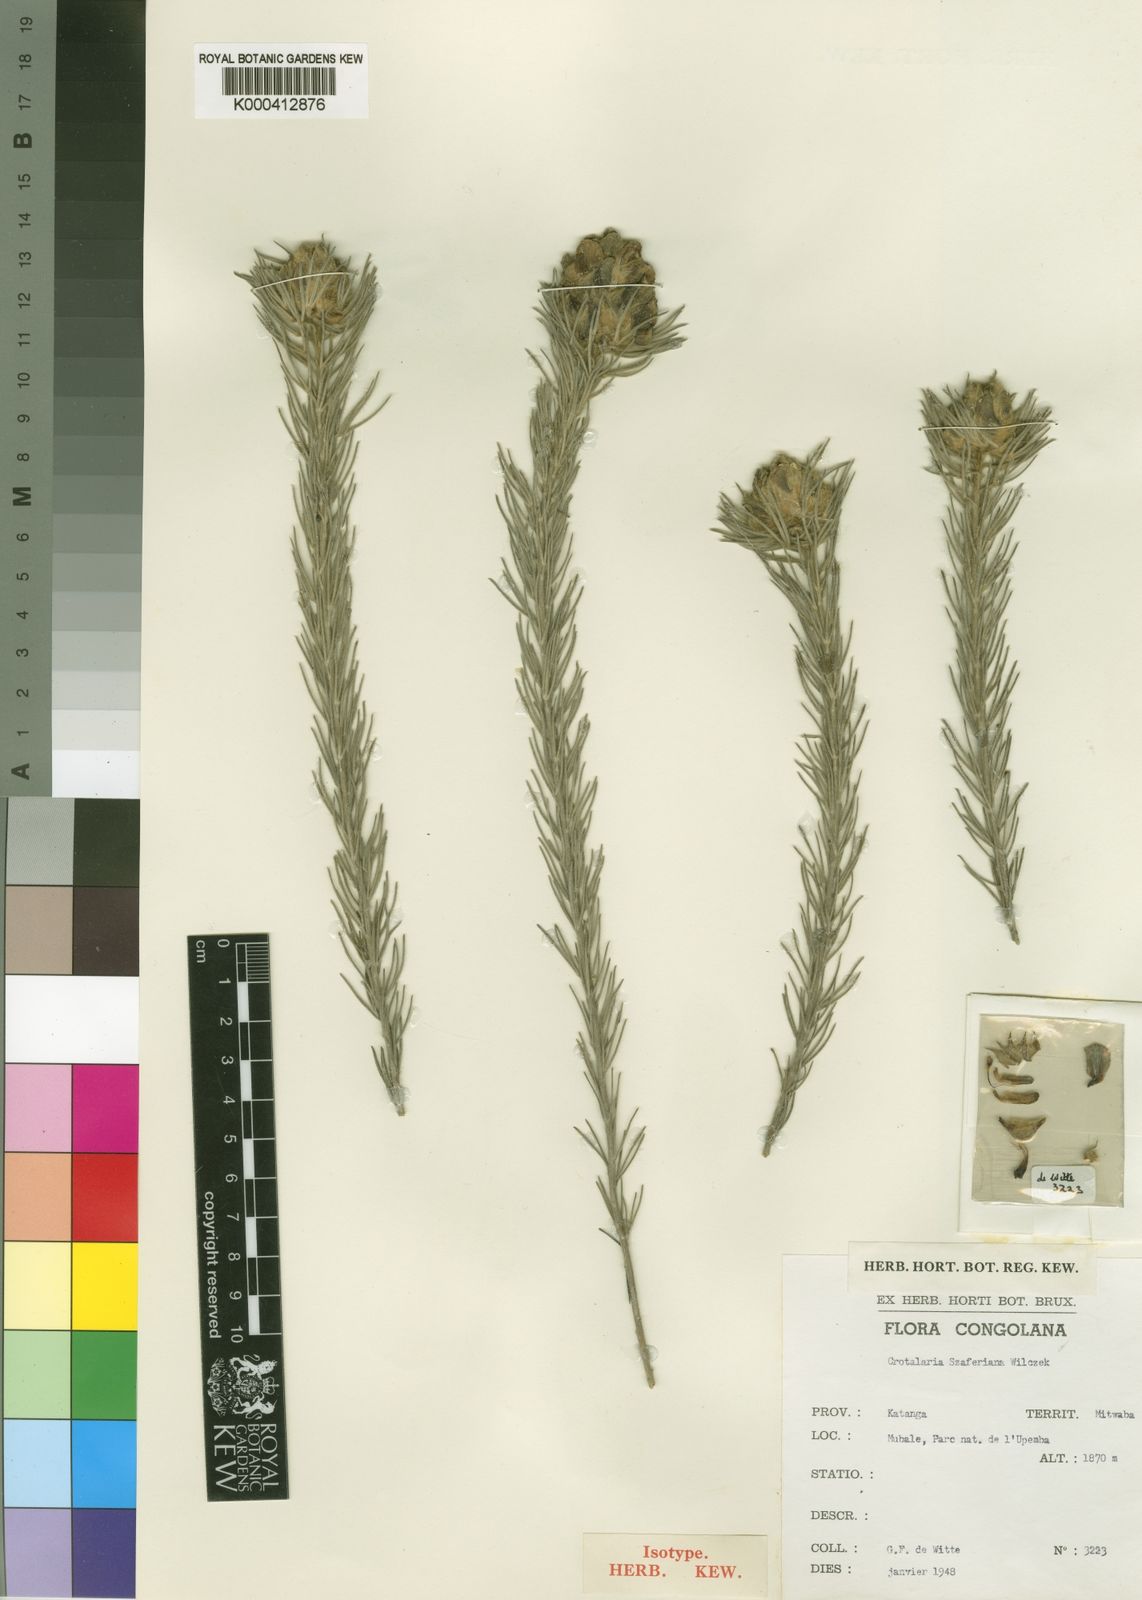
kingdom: Plantae
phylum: Tracheophyta
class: Magnoliopsida
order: Fabales
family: Fabaceae
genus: Crotalaria
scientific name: Crotalaria szaferiana
